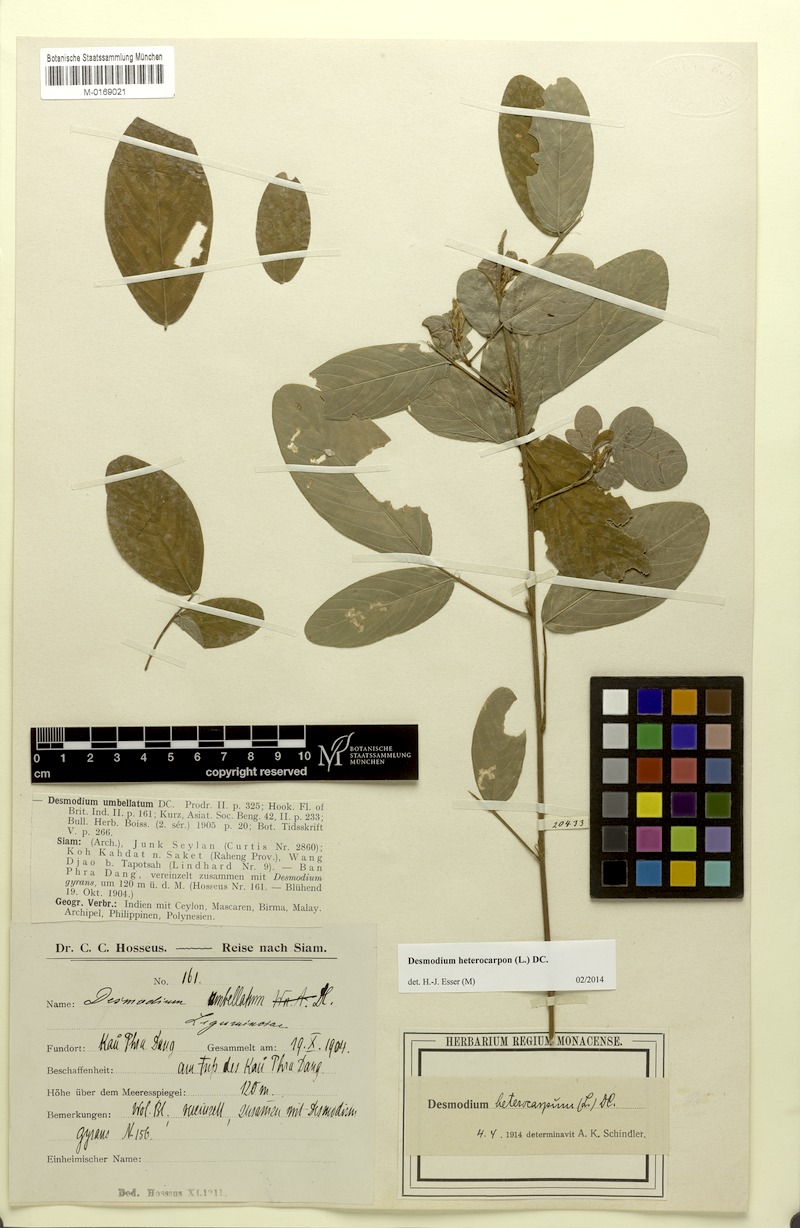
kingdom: Plantae
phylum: Tracheophyta
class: Magnoliopsida
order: Fabales
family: Fabaceae
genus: Grona
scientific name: Grona heterocarpos
